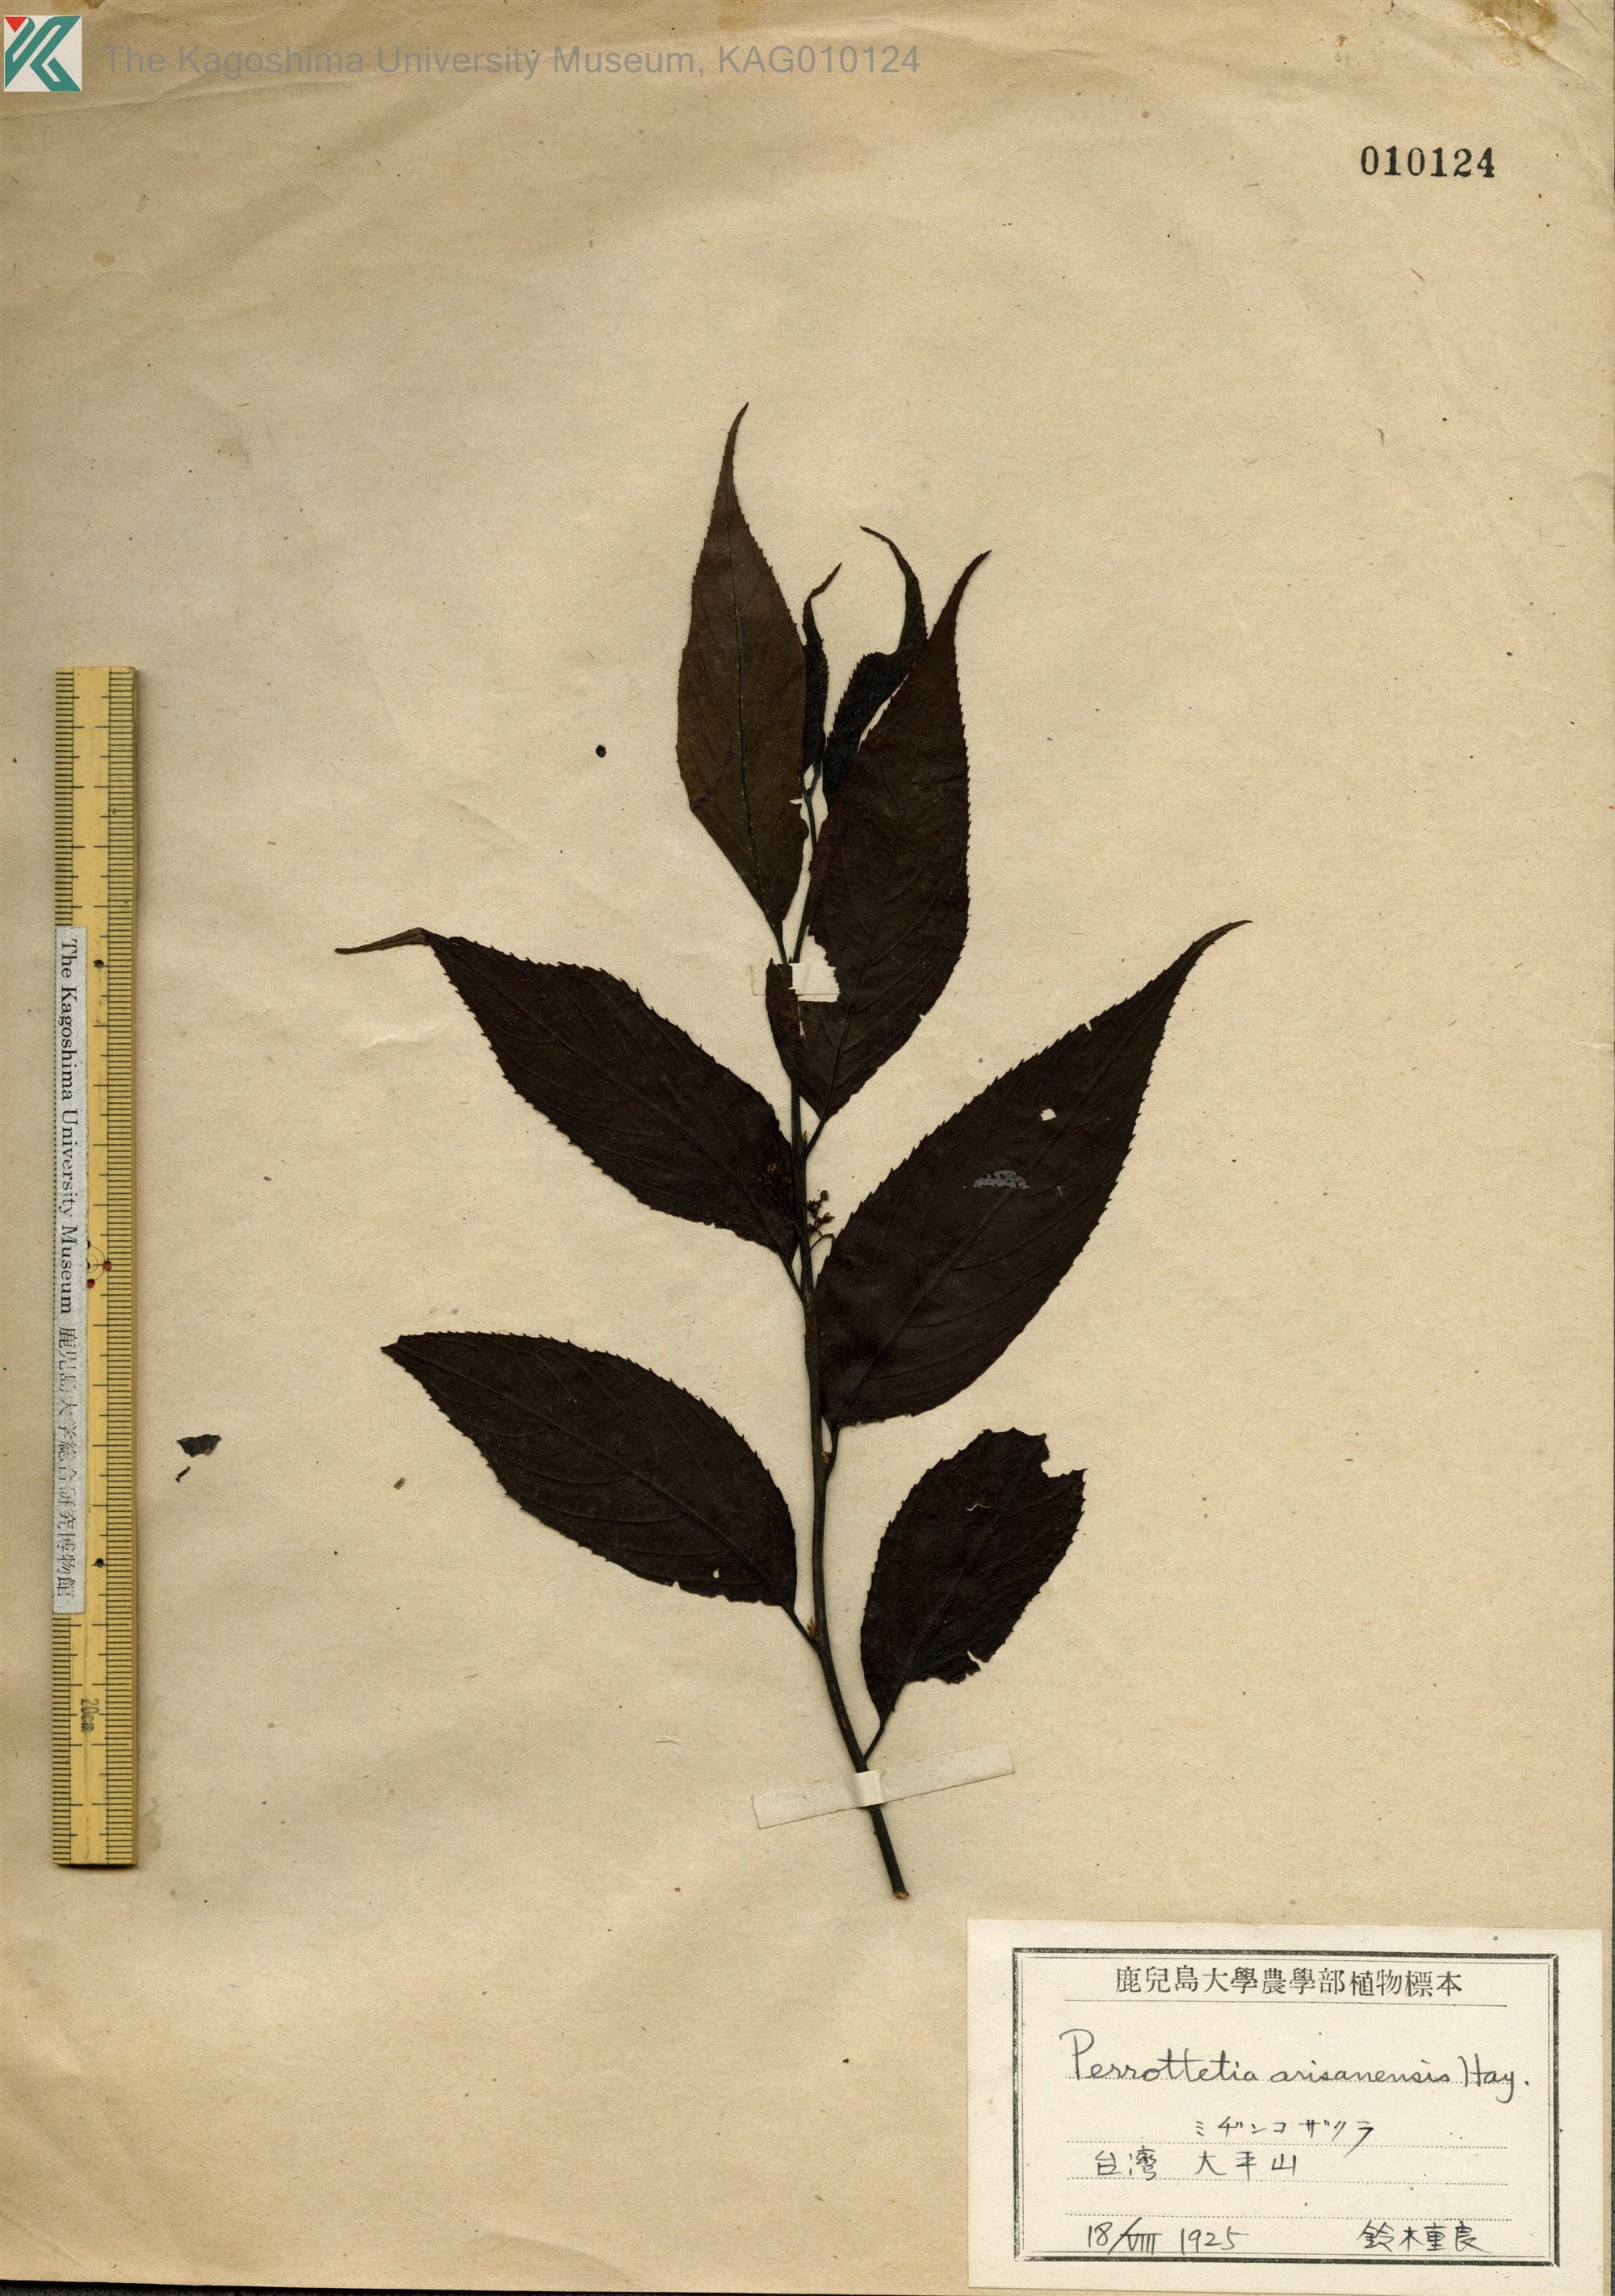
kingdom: Plantae
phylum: Tracheophyta
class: Magnoliopsida
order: Huerteales
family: Dipentodontaceae
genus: Perrottetia
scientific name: Perrottetia arisanensis
